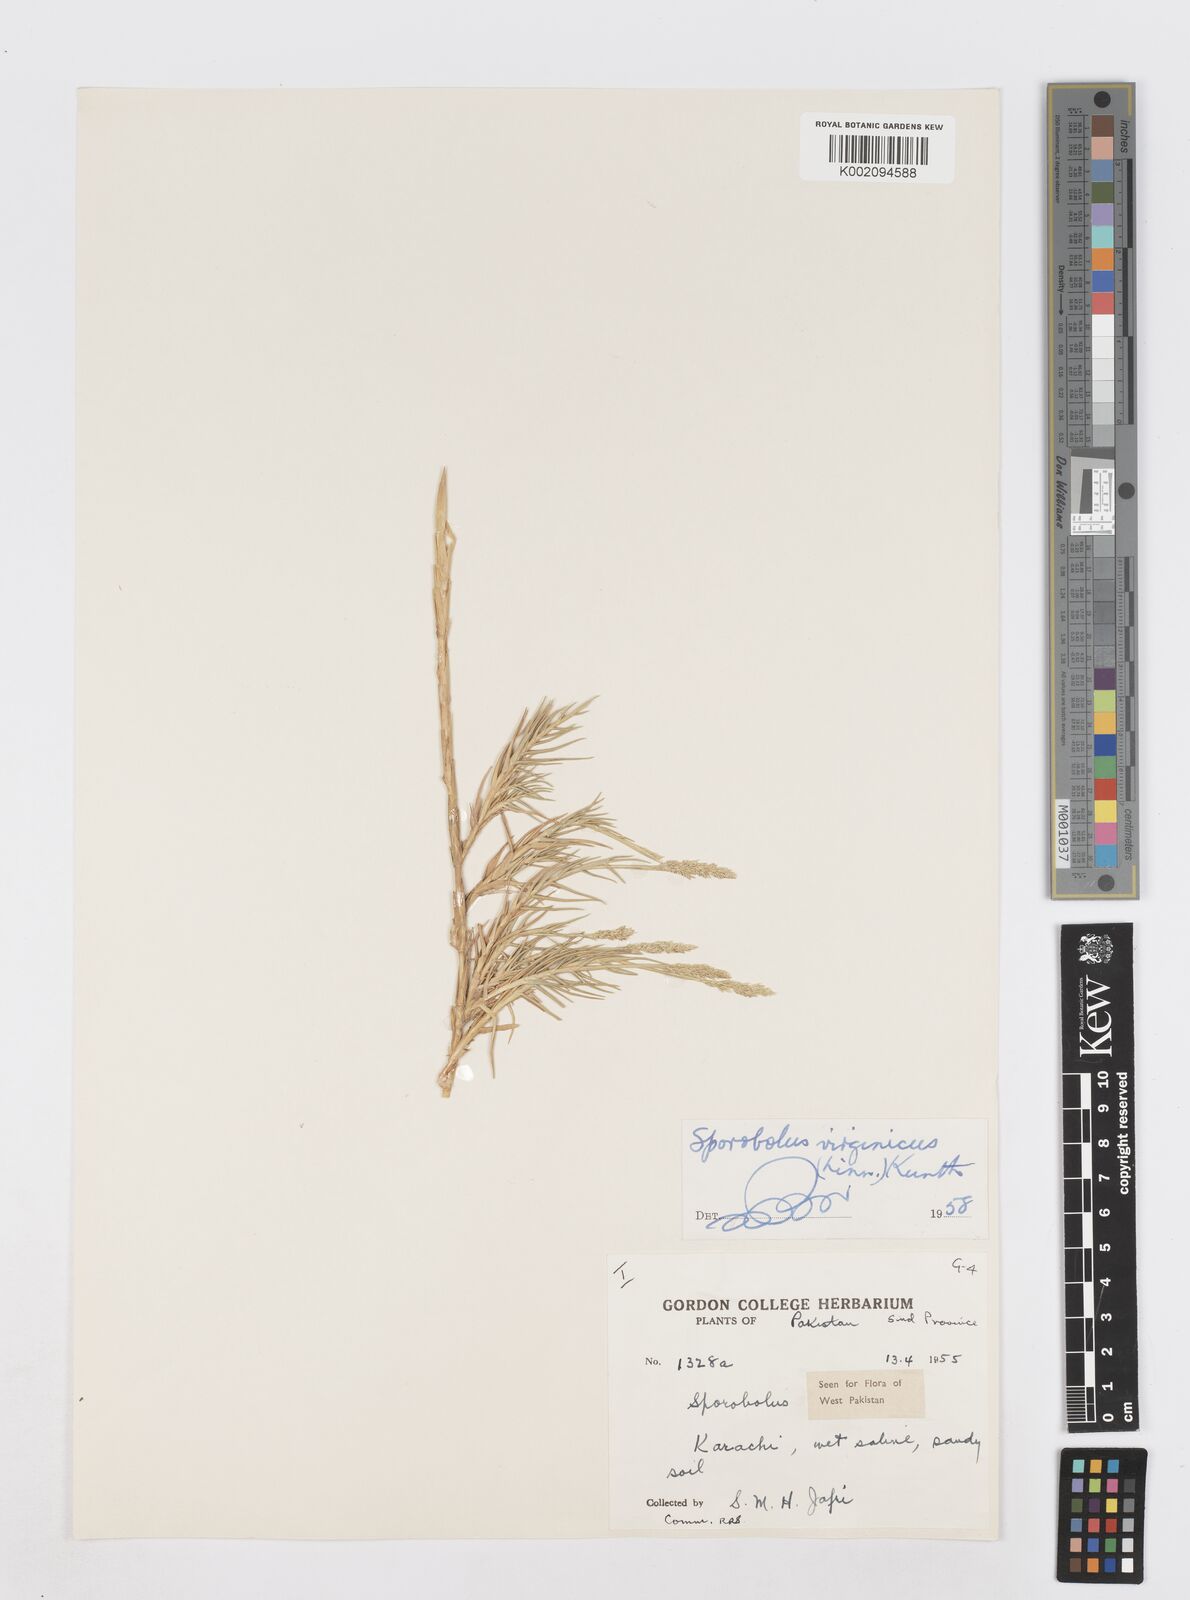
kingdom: Plantae
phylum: Tracheophyta
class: Liliopsida
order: Poales
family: Poaceae
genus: Sporobolus
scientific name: Sporobolus virginicus
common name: Beach dropseed
